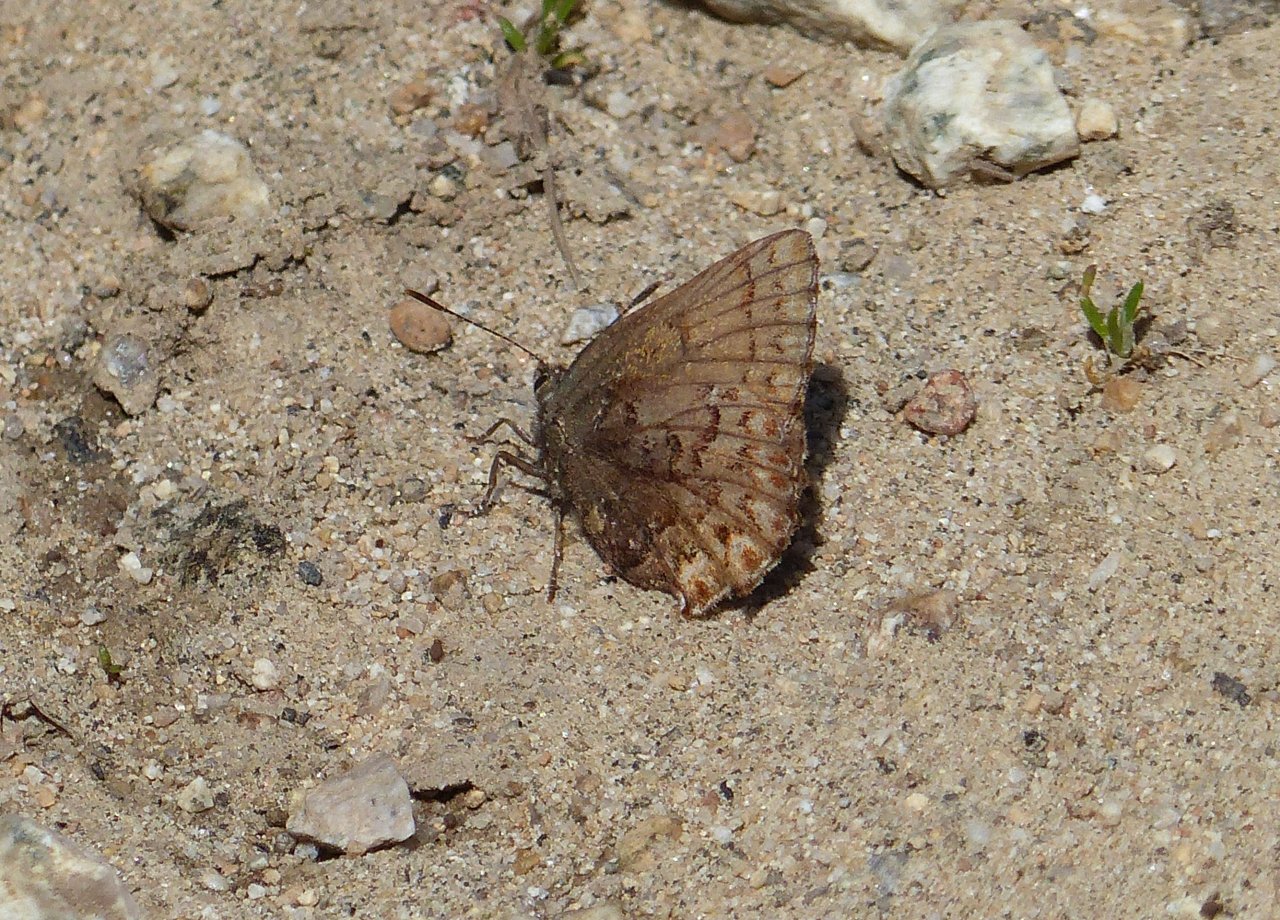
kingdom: Animalia
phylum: Arthropoda
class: Insecta
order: Lepidoptera
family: Lycaenidae
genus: Incisalia
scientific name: Incisalia eryphon
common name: Western Pine Elfin
